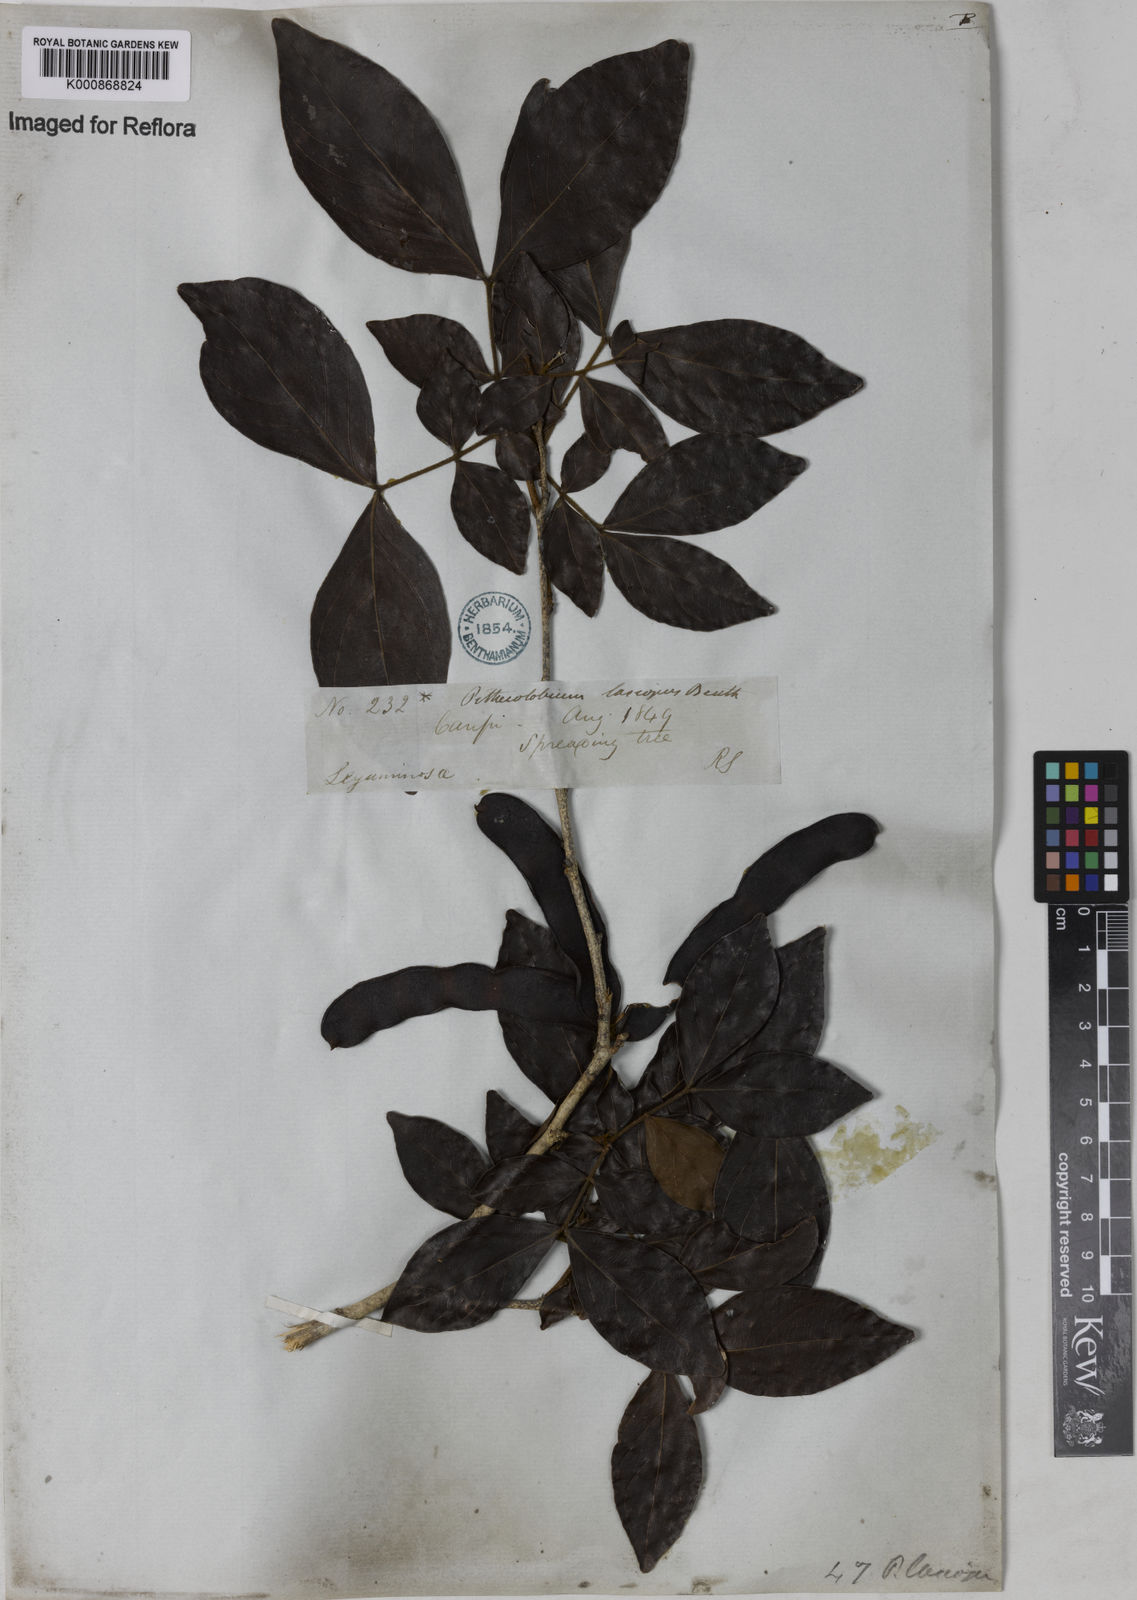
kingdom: Plantae
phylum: Tracheophyta
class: Magnoliopsida
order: Fabales
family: Fabaceae
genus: Zygia
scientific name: Zygia
